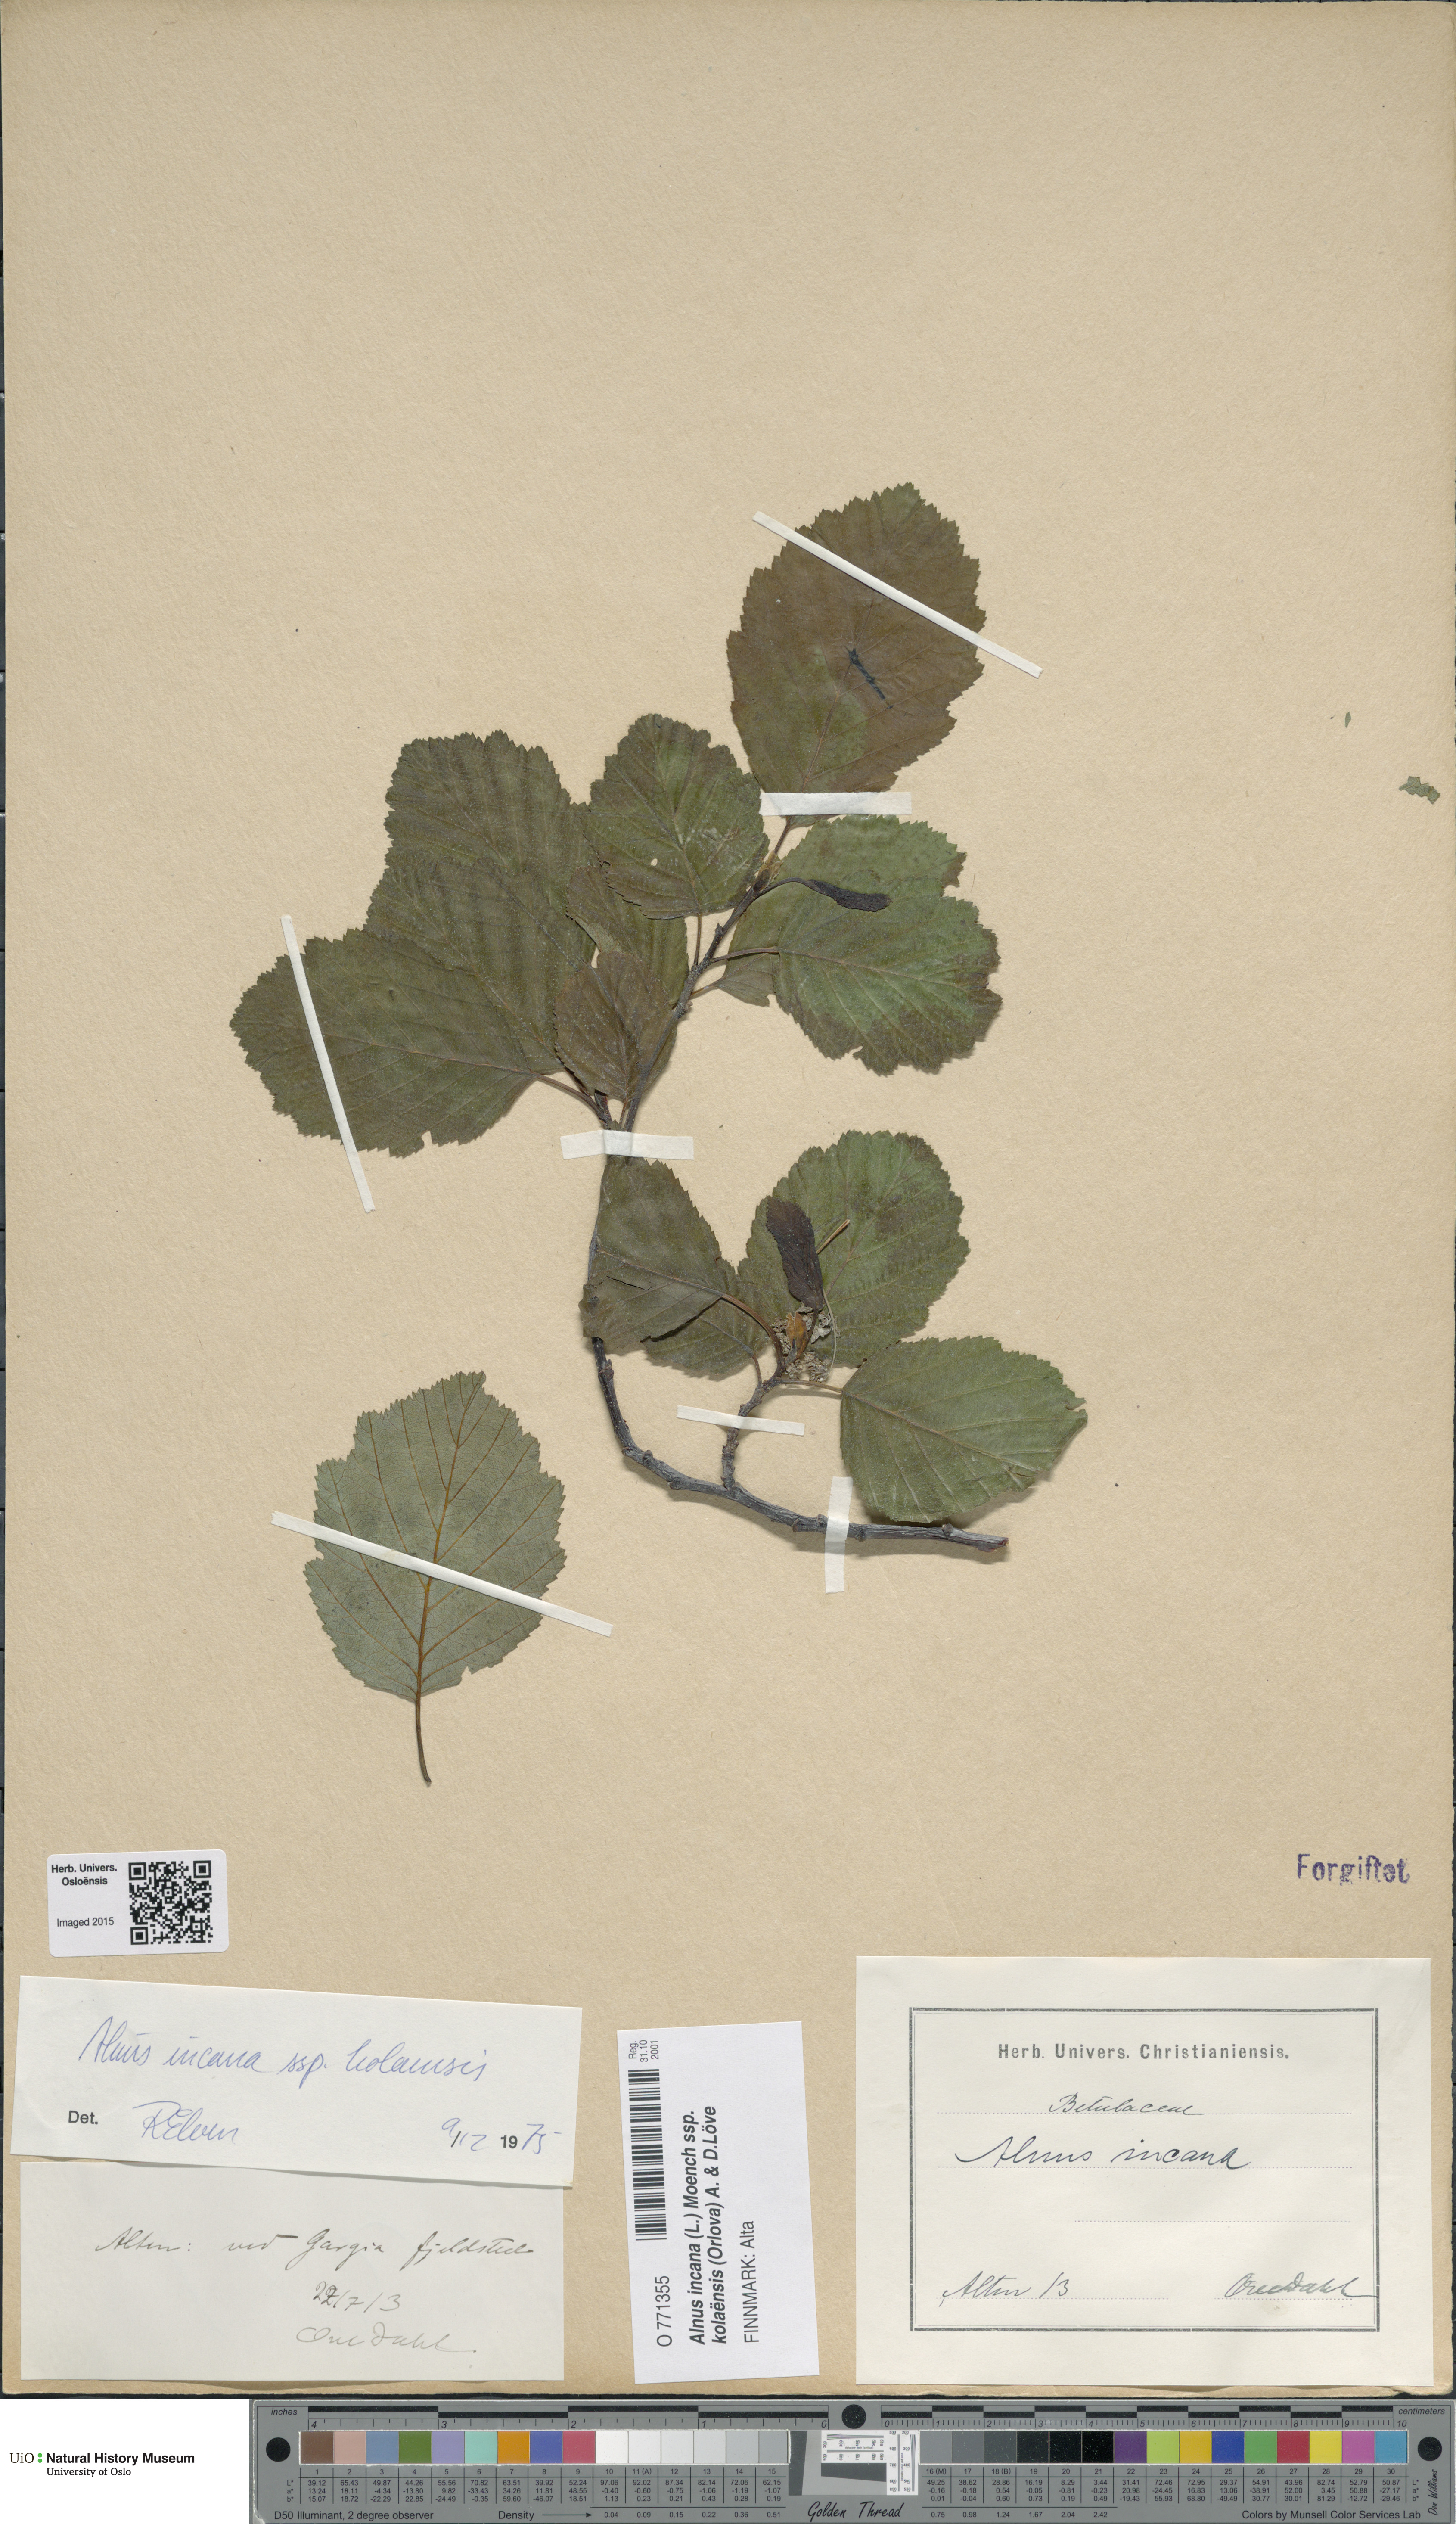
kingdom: Plantae
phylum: Tracheophyta
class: Magnoliopsida
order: Fagales
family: Betulaceae
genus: Alnus
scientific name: Alnus incana
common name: Grey alder
